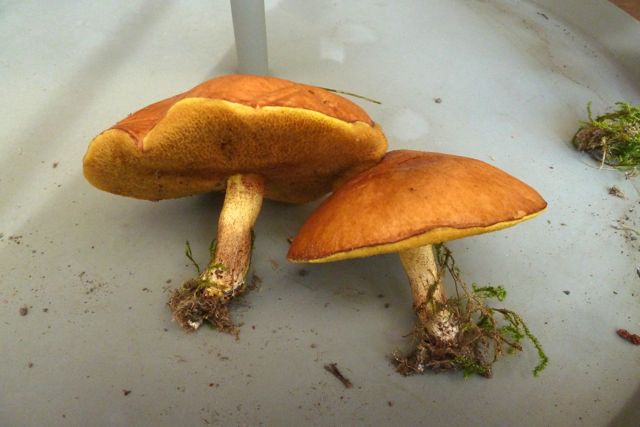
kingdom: Fungi
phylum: Basidiomycota
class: Agaricomycetes
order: Boletales
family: Suillaceae
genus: Suillus
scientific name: Suillus granulatus
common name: kornet slimrørhat
